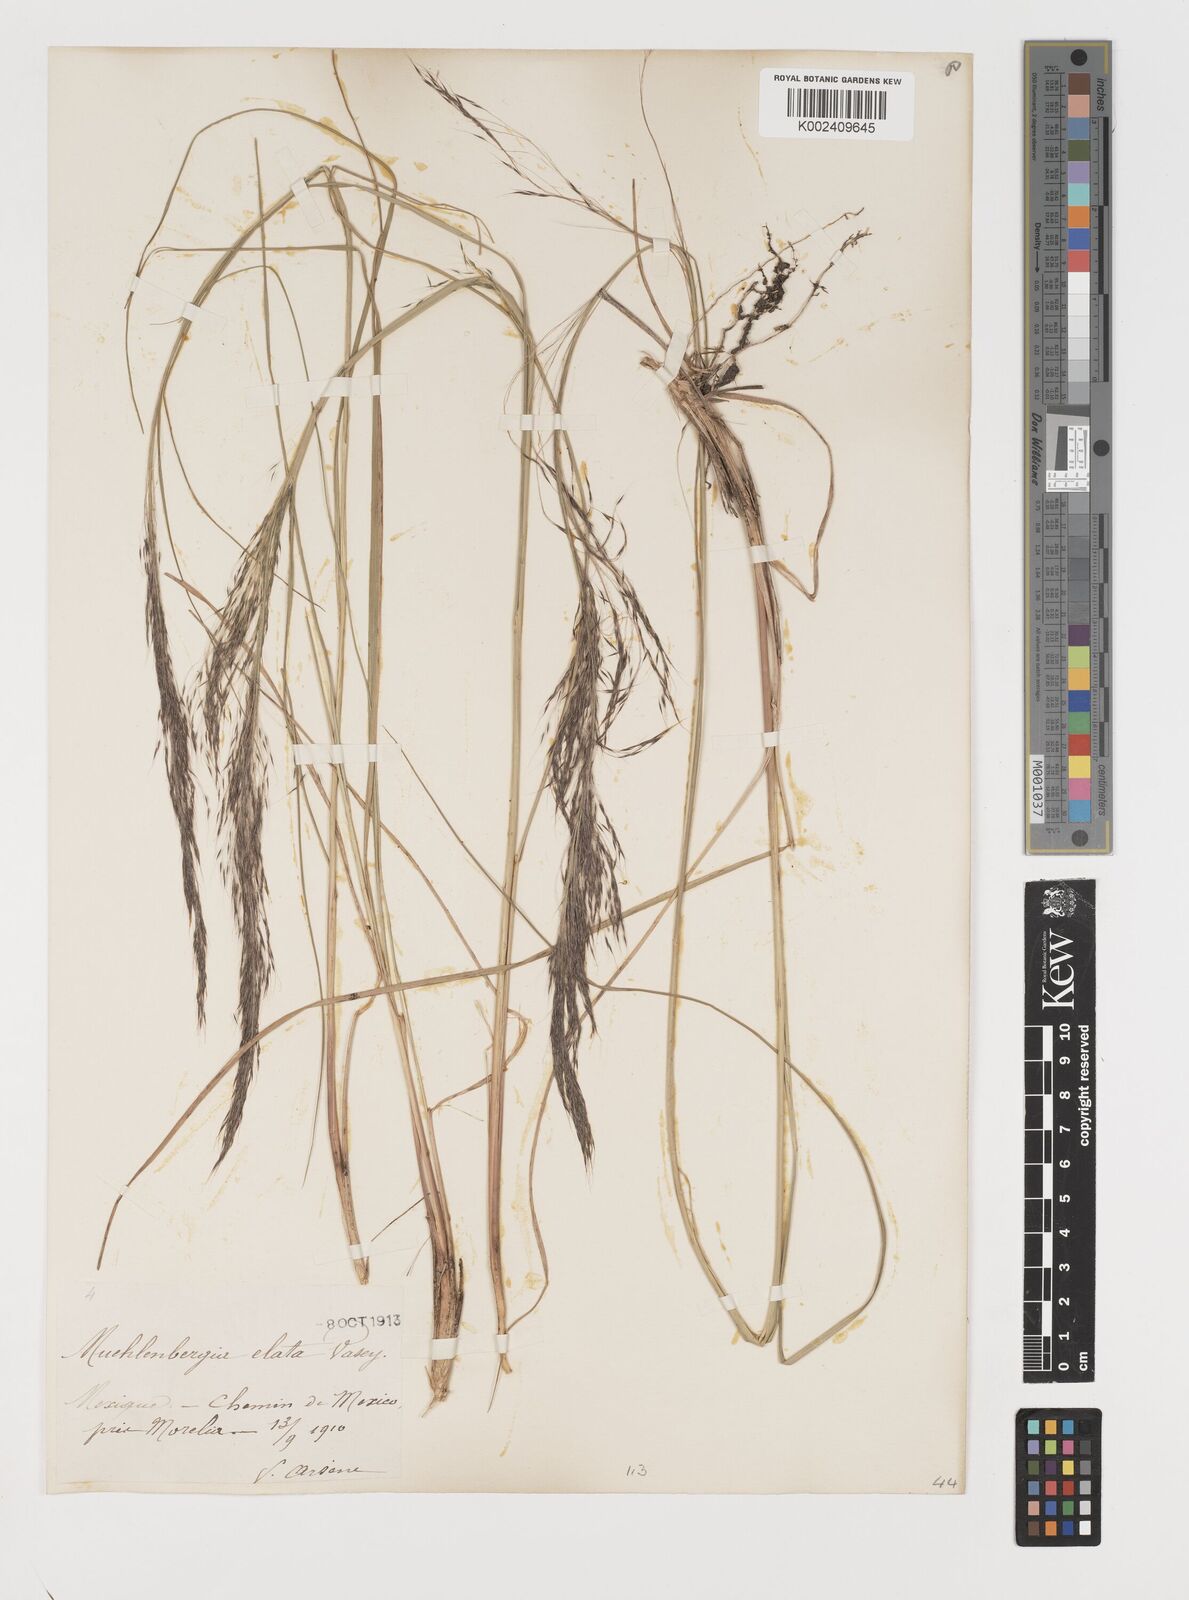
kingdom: Plantae
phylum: Tracheophyta
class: Liliopsida
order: Poales
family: Poaceae
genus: Muhlenbergia
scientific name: Muhlenbergia stricta
